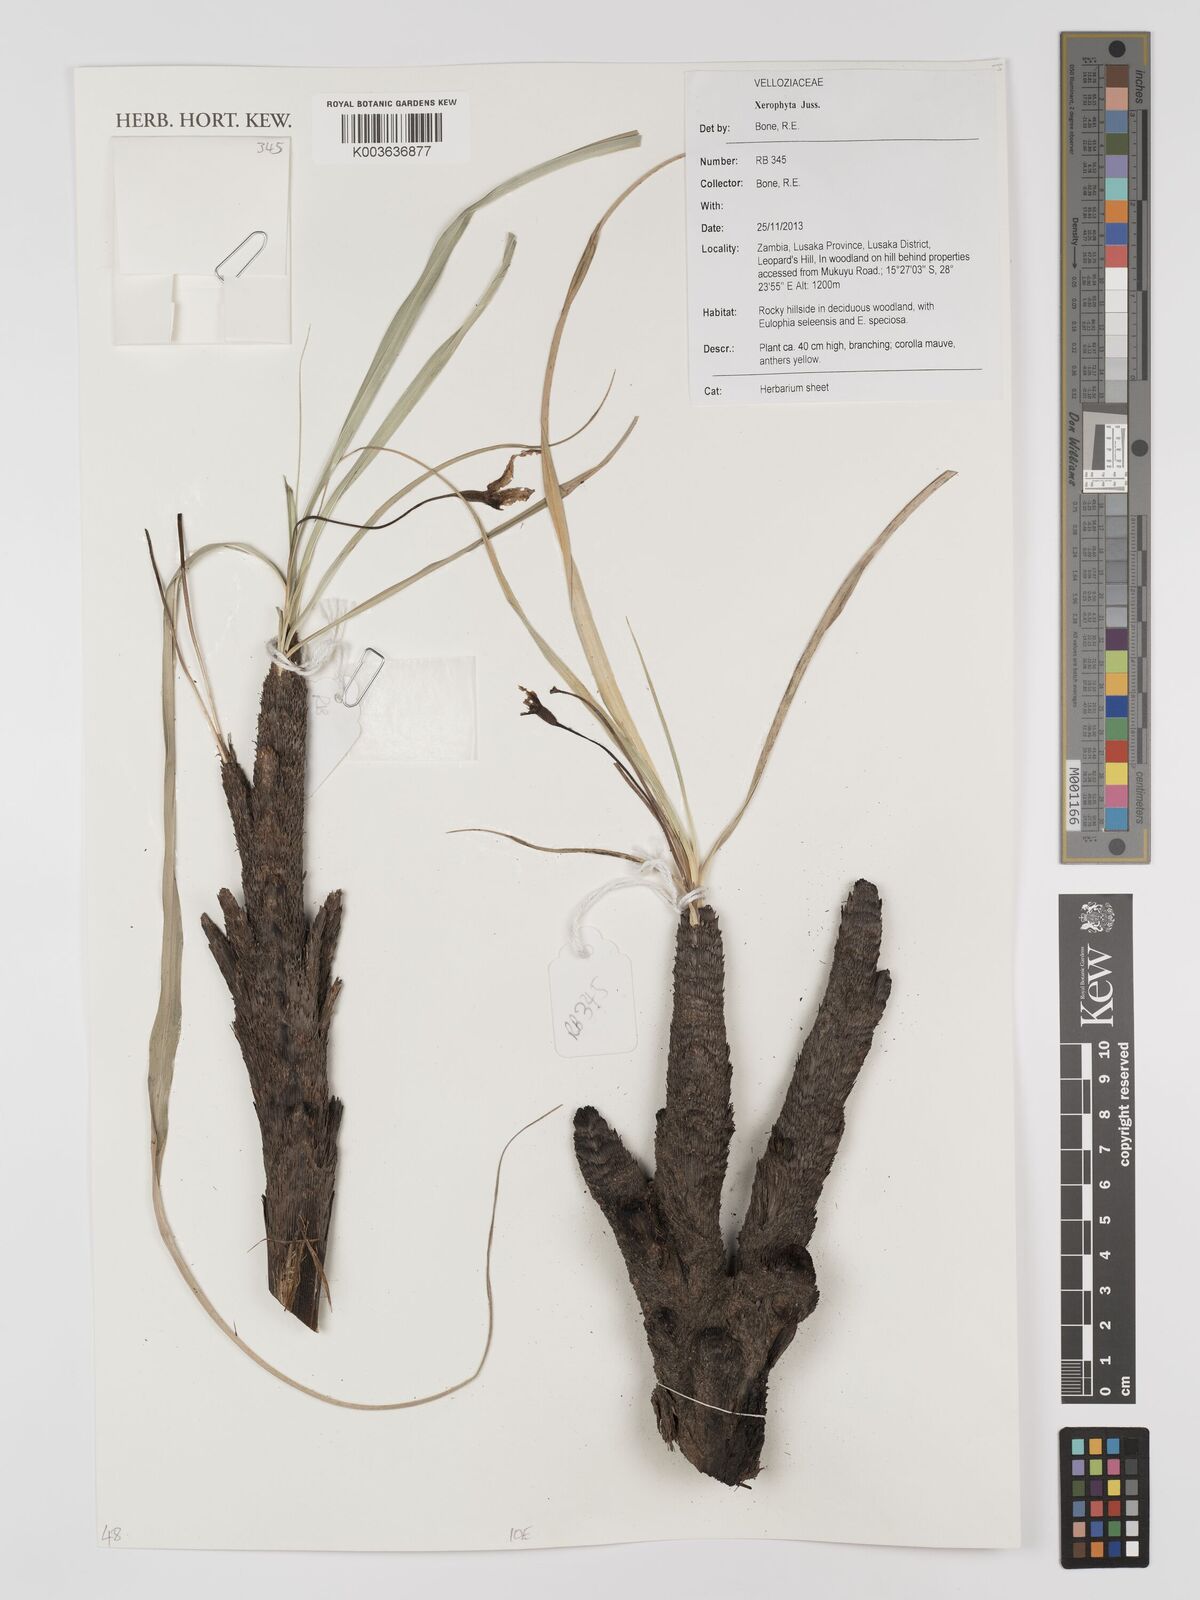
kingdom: Plantae
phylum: Tracheophyta
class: Liliopsida
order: Pandanales
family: Velloziaceae
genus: Xerophyta
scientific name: Xerophyta
